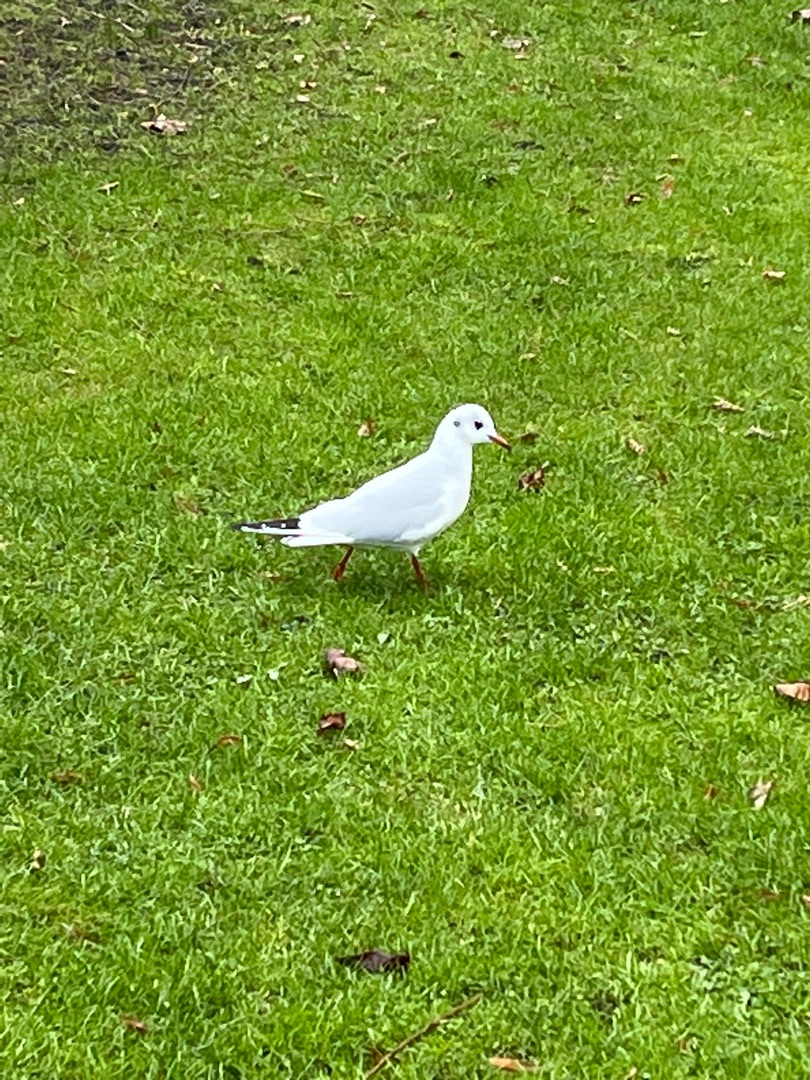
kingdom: Animalia
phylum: Chordata
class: Aves
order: Charadriiformes
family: Laridae
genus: Chroicocephalus
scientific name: Chroicocephalus ridibundus
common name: Hættemåge
